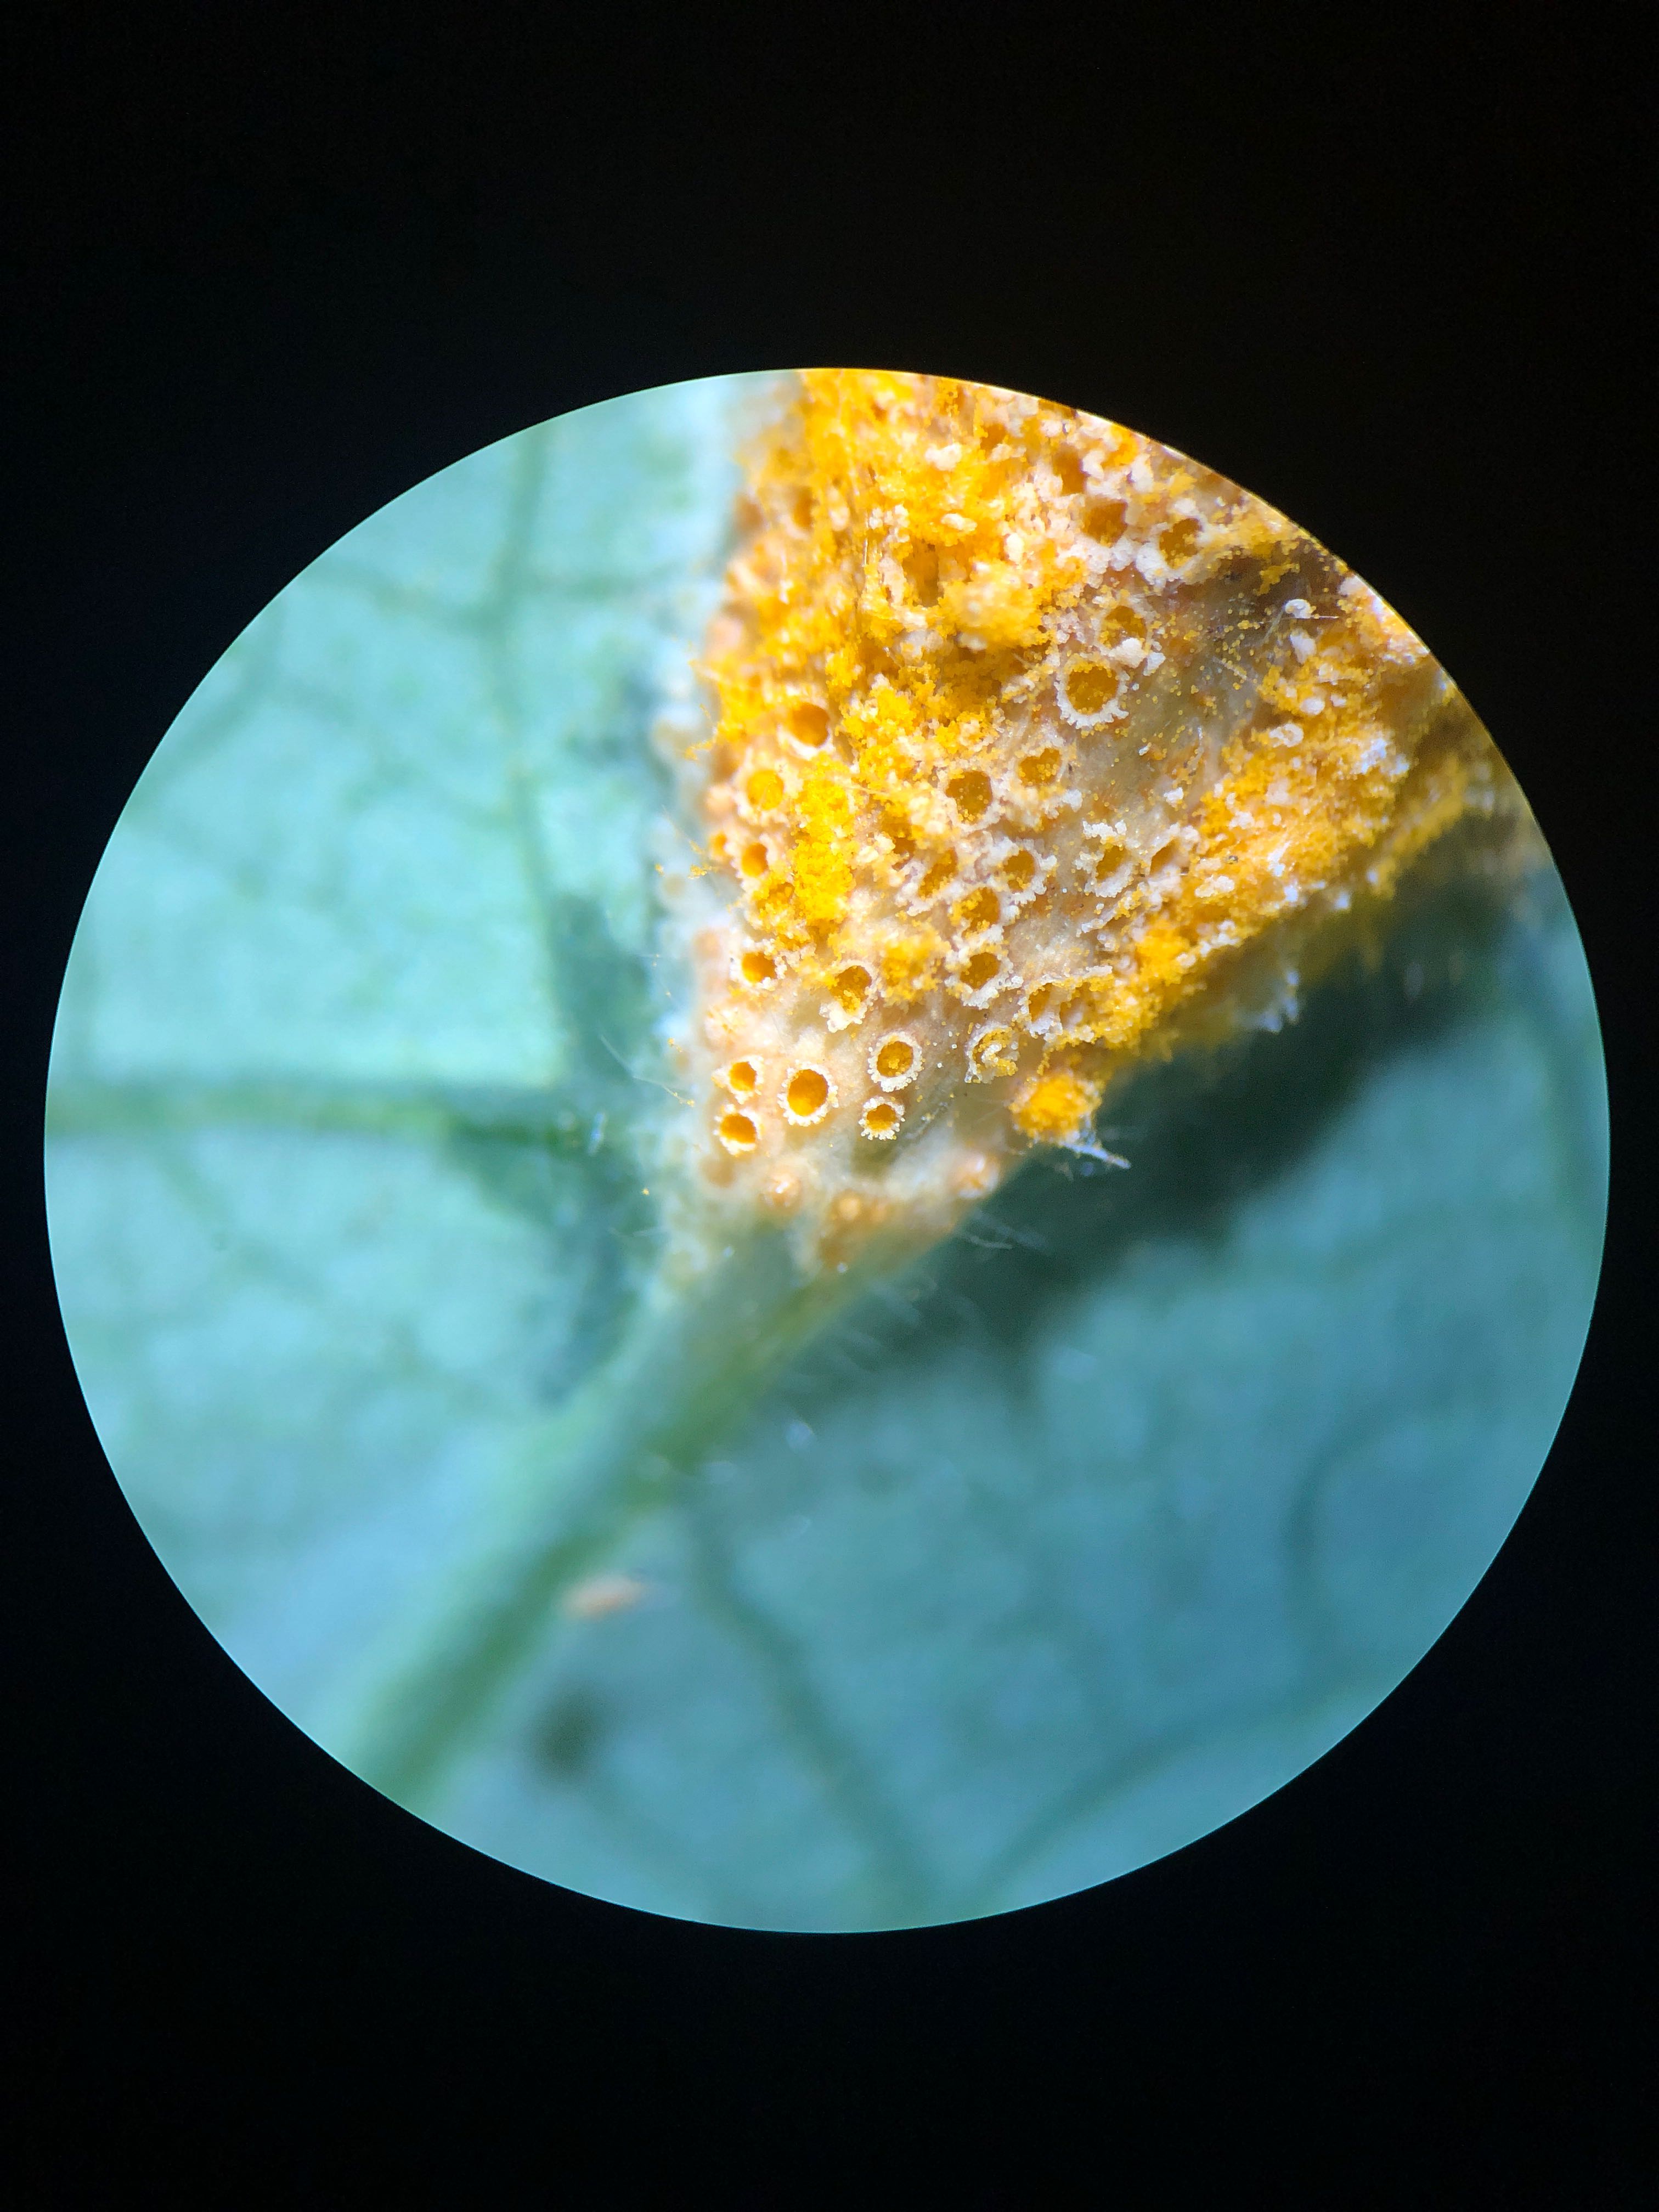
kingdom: Fungi
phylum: Basidiomycota
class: Pucciniomycetes
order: Pucciniales
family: Pucciniaceae
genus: Puccinia
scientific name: Puccinia festucae
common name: gedeblad-tvecellerust
